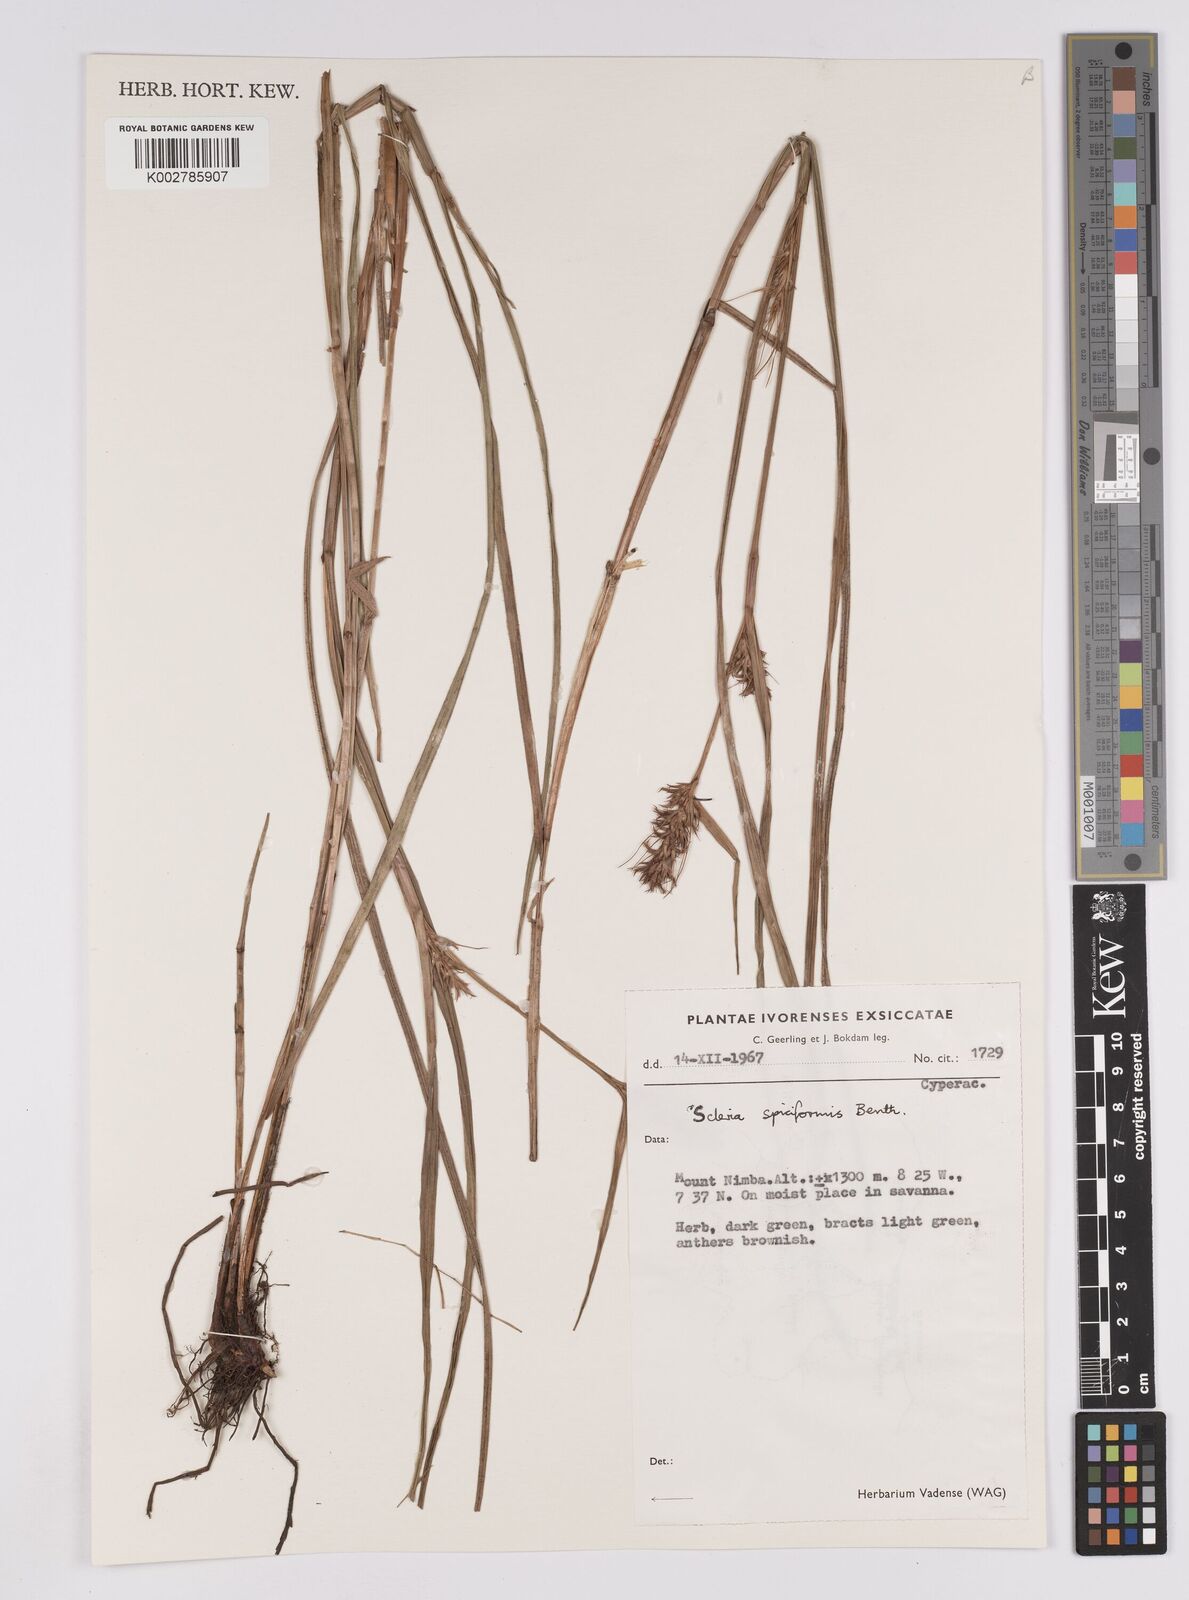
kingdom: Plantae
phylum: Tracheophyta
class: Liliopsida
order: Poales
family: Cyperaceae
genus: Scleria
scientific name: Scleria spiciformis
